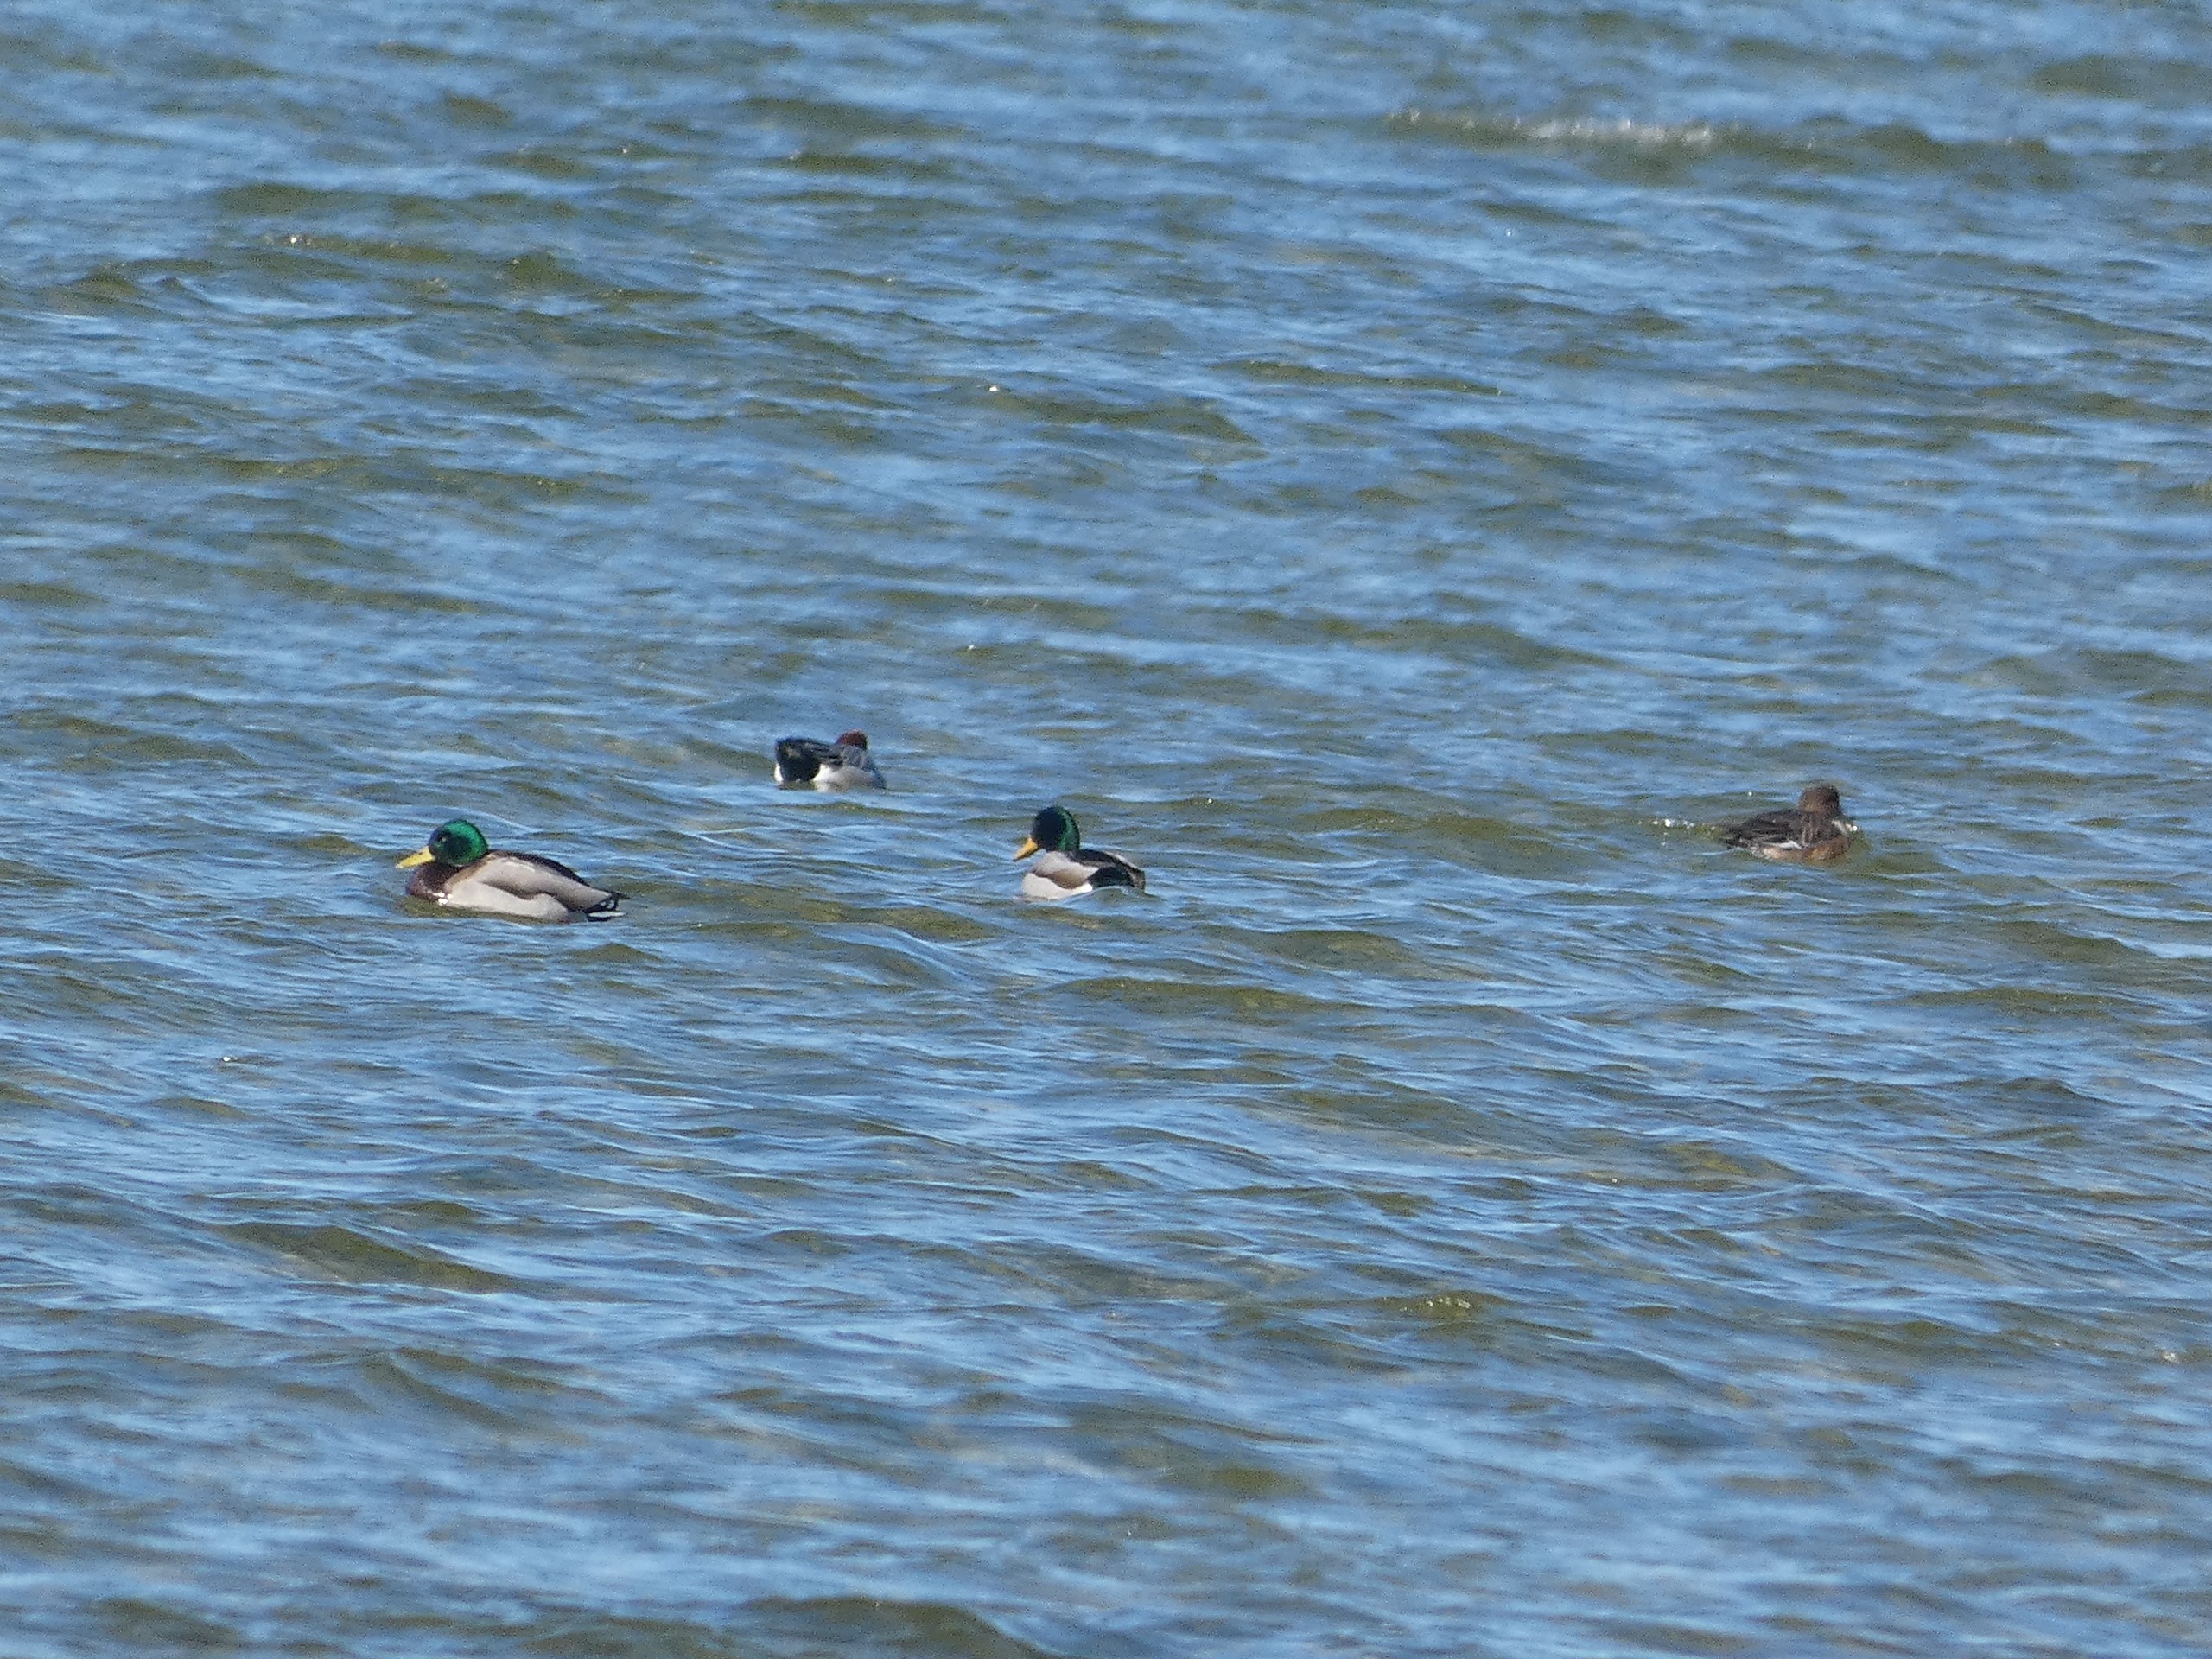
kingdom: Animalia
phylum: Chordata
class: Aves
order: Anseriformes
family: Anatidae
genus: Anas
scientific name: Anas platyrhynchos
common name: Gråand
